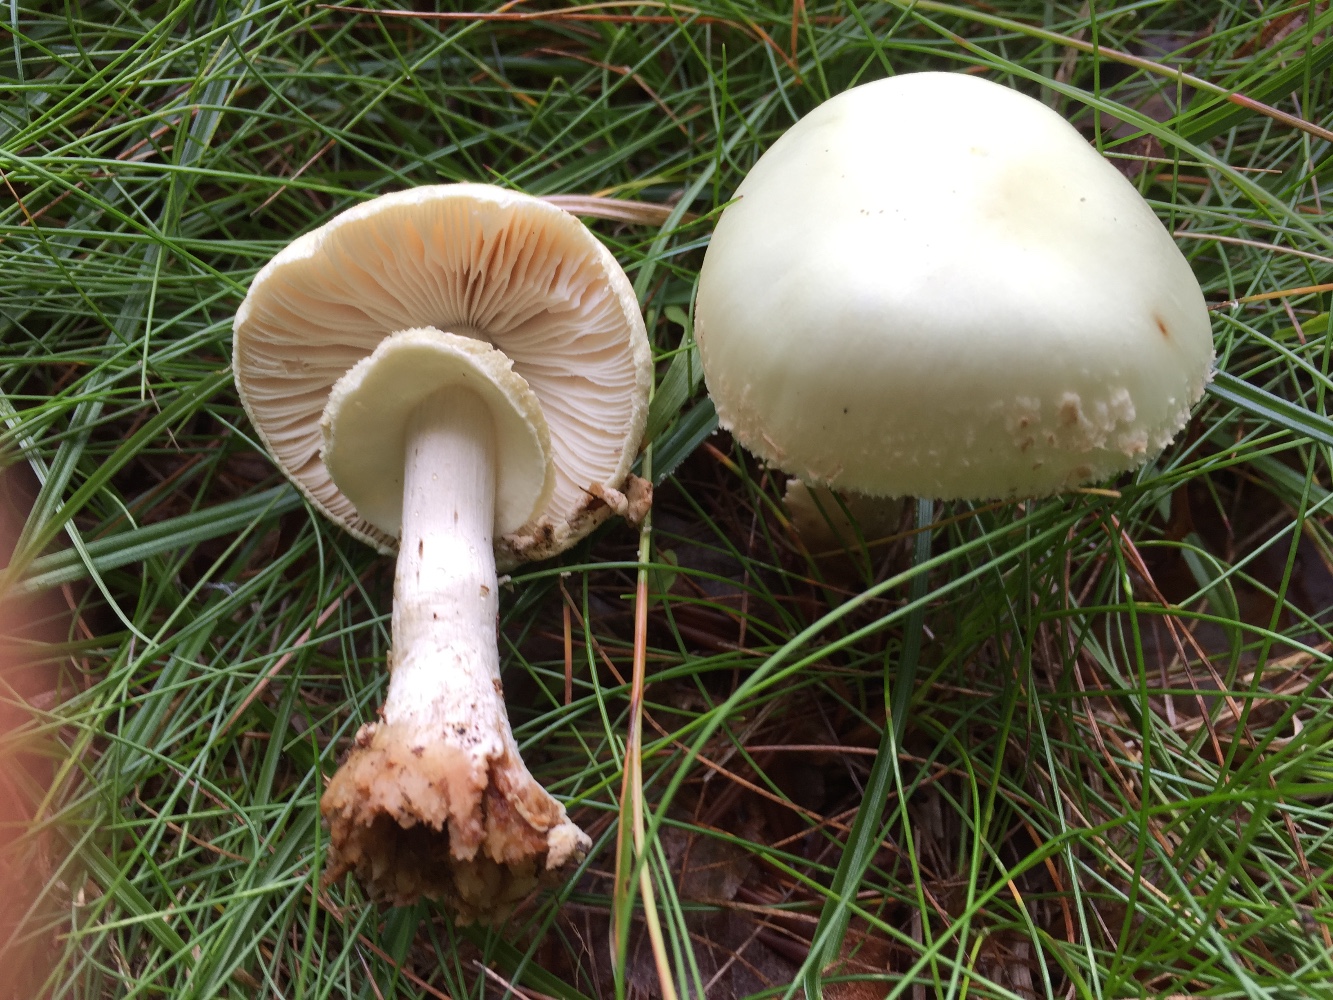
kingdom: Fungi
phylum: Basidiomycota
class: Agaricomycetes
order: Agaricales
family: Amanitaceae
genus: Amanita
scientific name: Amanita citrina
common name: kugleknoldet fluesvamp
